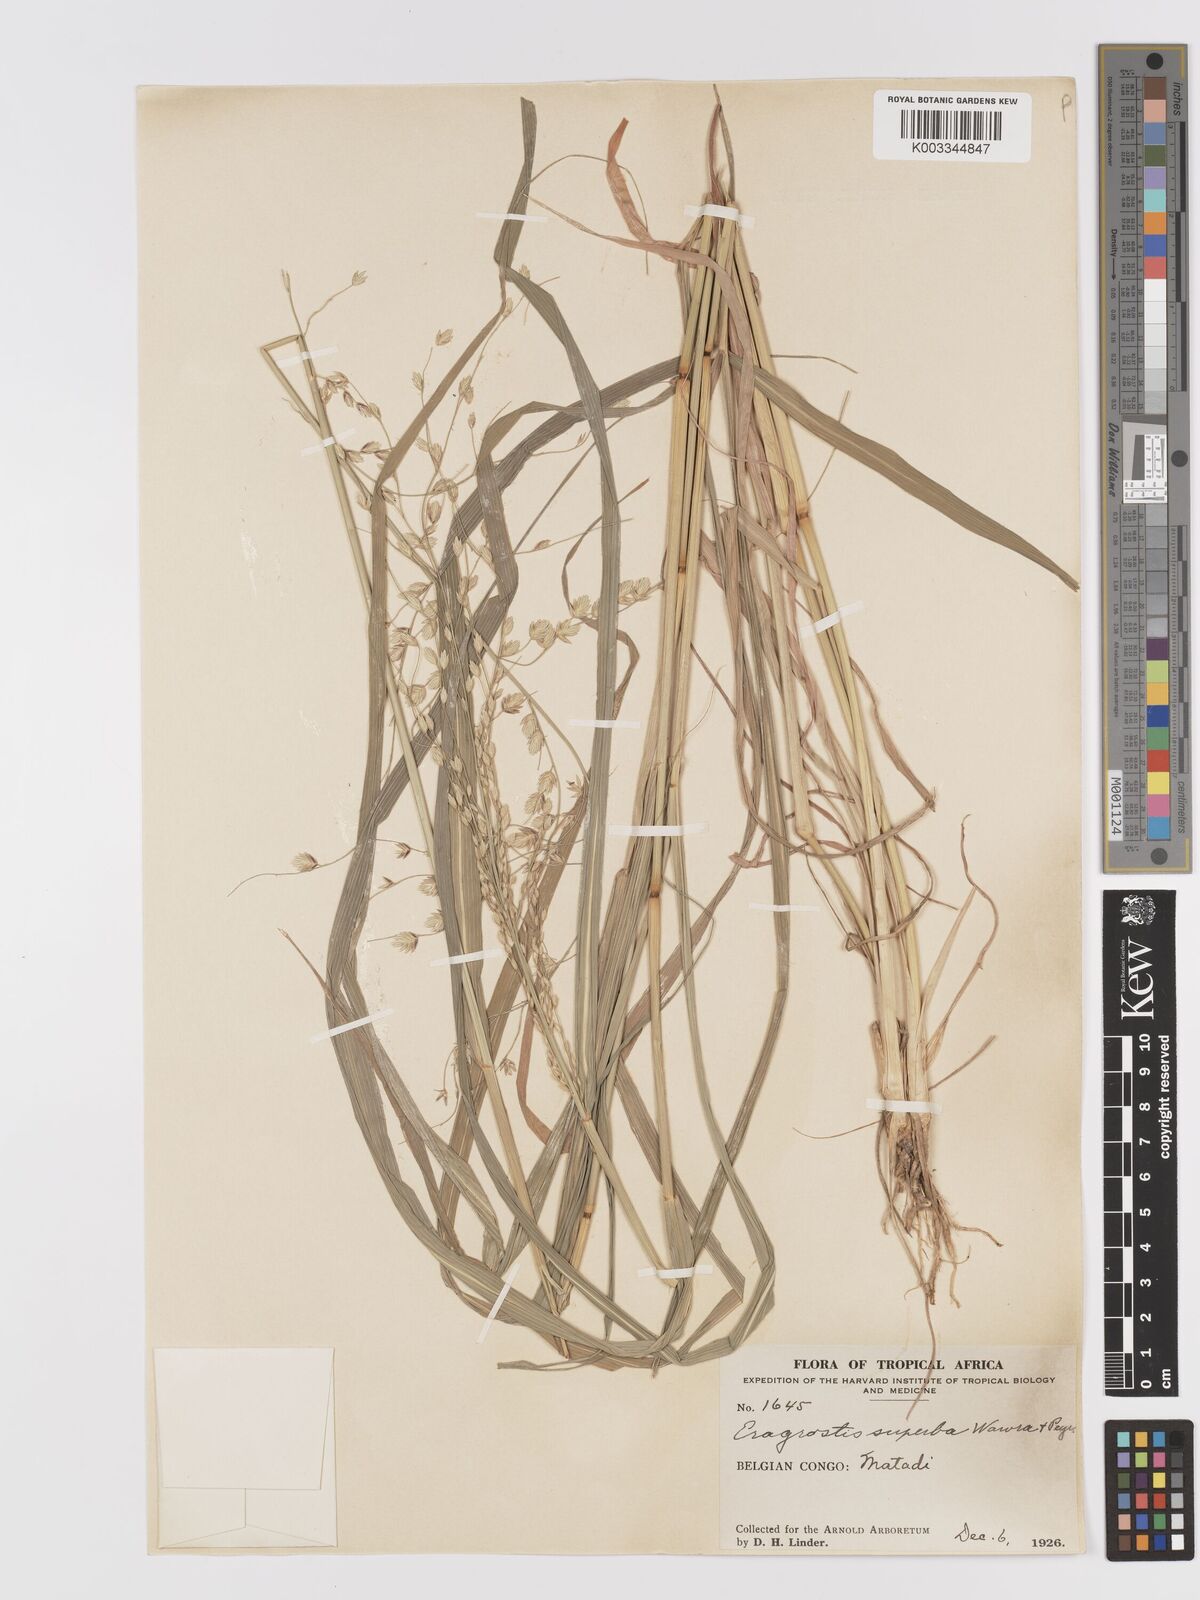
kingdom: Plantae
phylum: Tracheophyta
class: Liliopsida
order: Poales
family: Poaceae
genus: Eragrostis
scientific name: Eragrostis superba
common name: Wilman lovegrass
